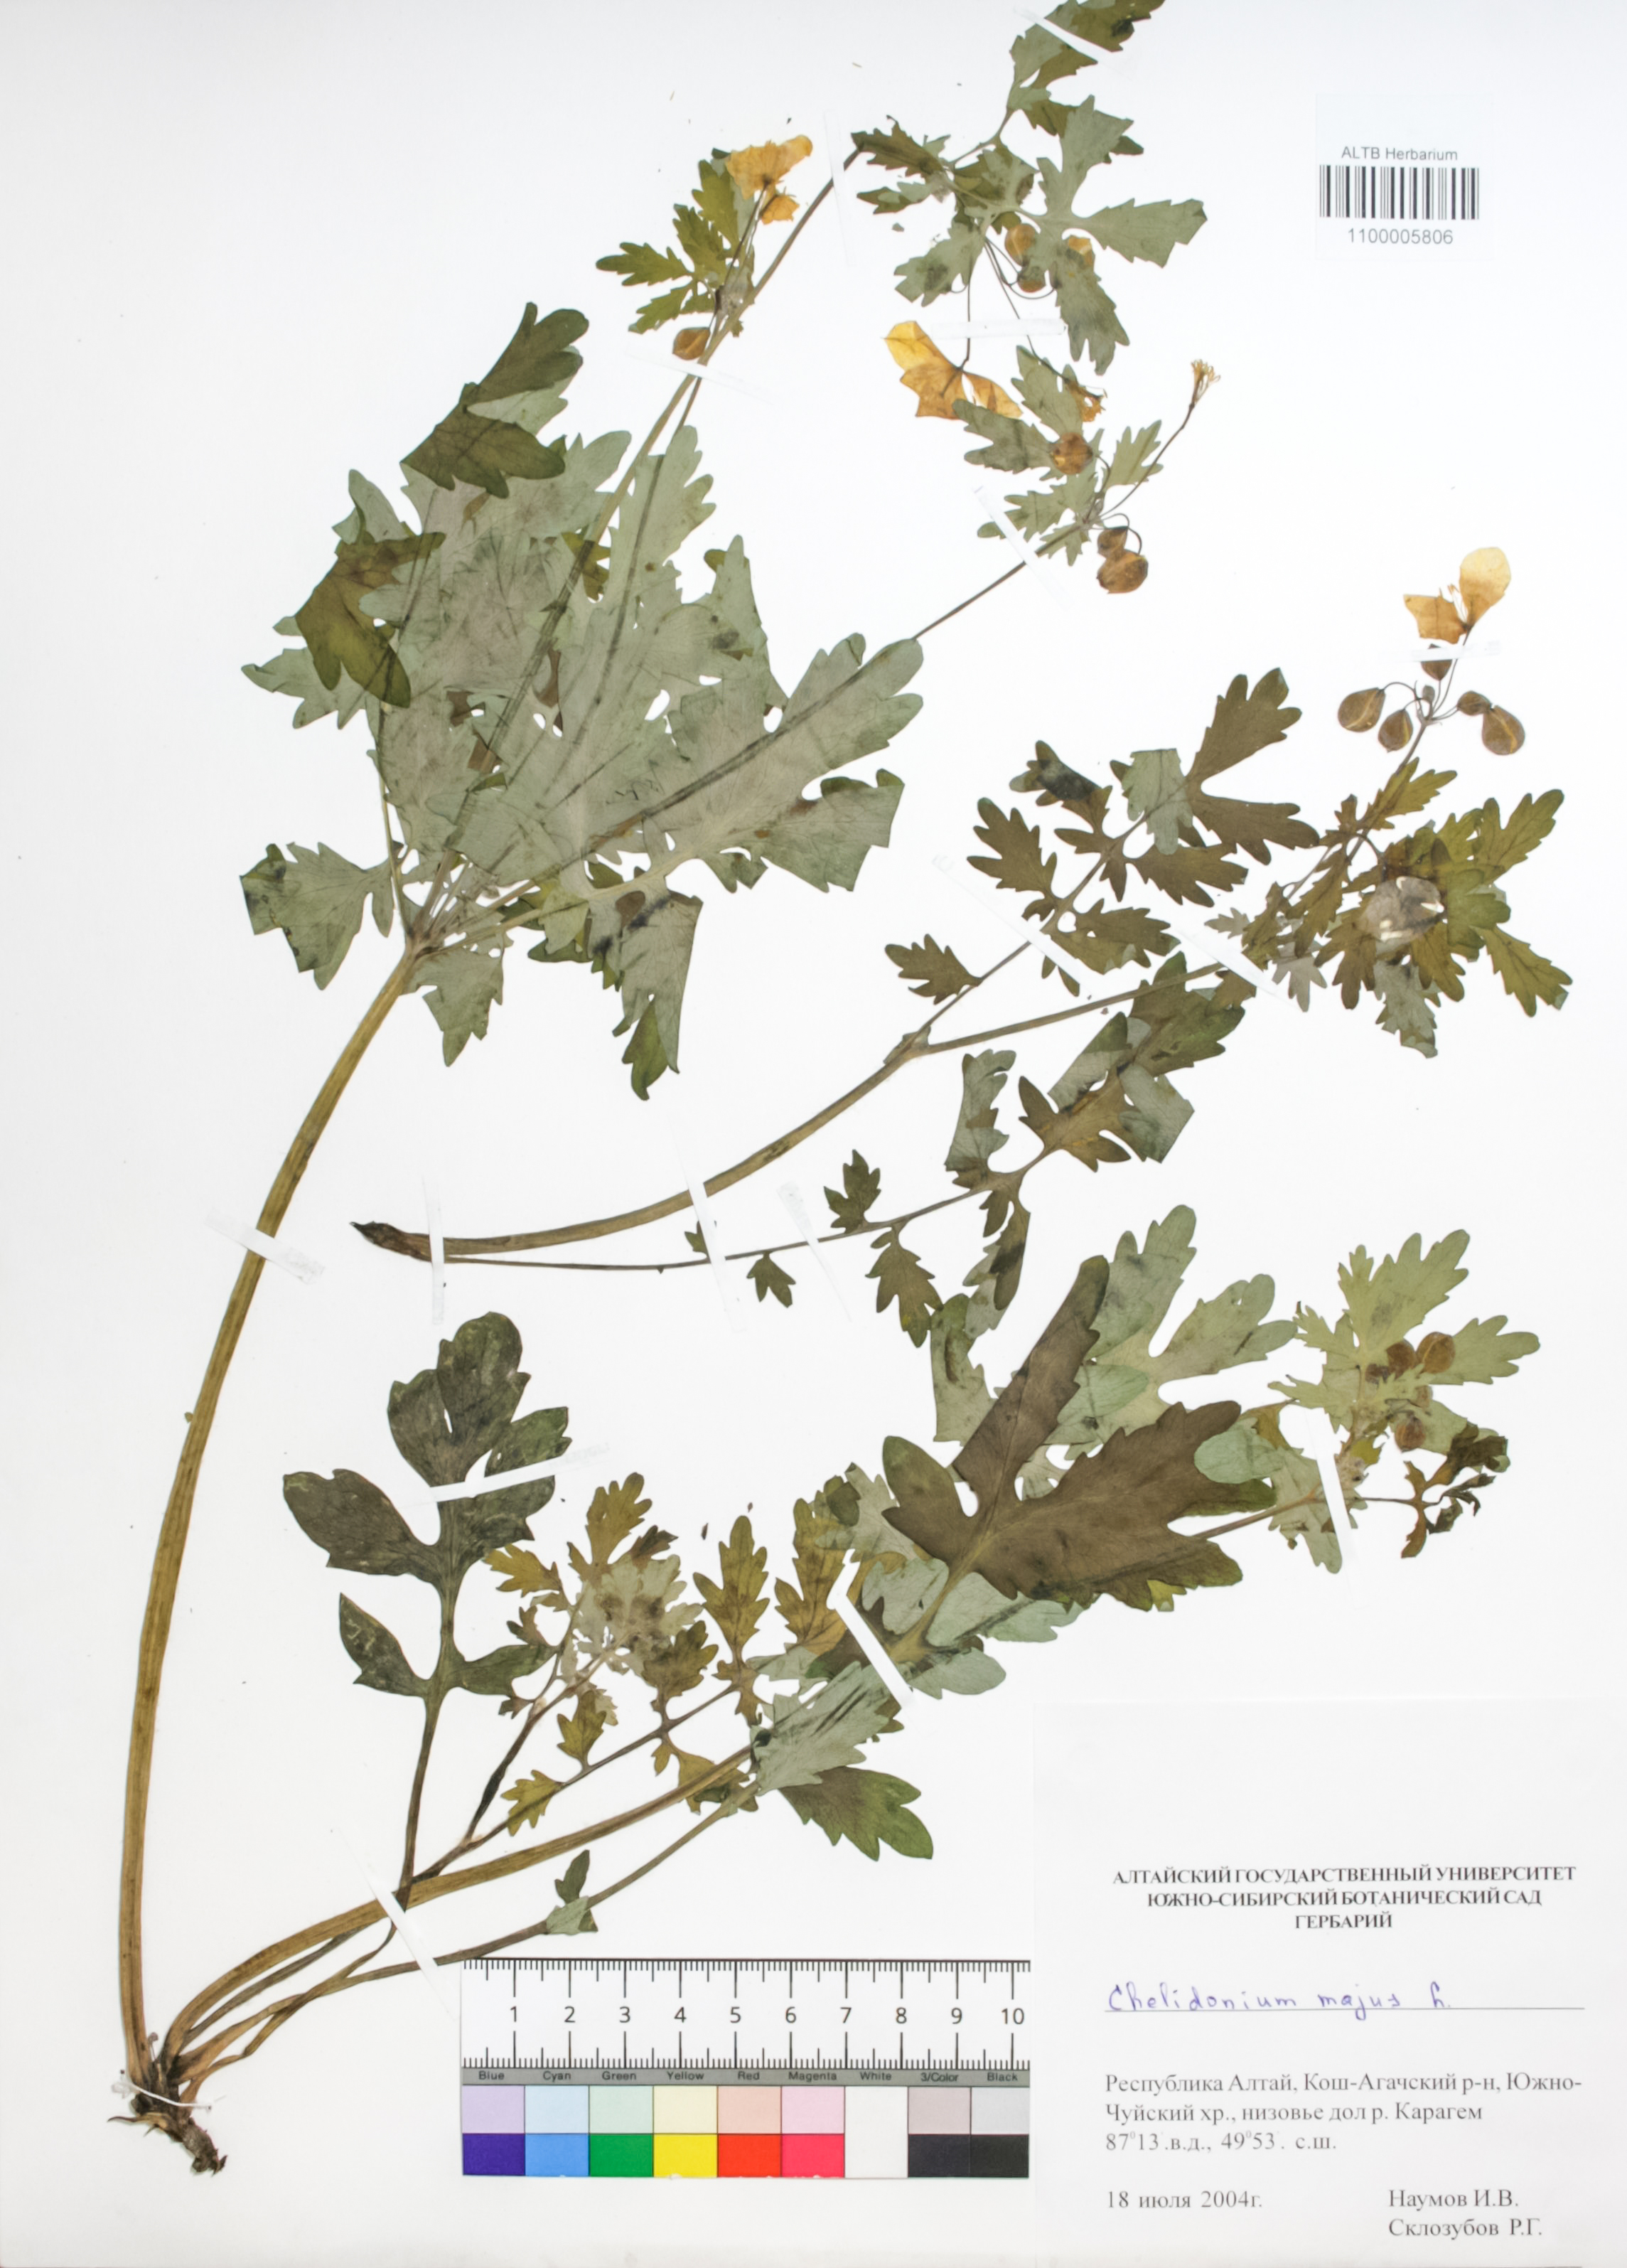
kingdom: Plantae
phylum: Tracheophyta
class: Magnoliopsida
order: Ranunculales
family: Papaveraceae
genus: Chelidonium
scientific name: Chelidonium majus
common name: Greater celandine
